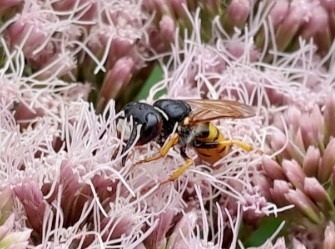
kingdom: Animalia
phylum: Arthropoda
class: Insecta
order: Hymenoptera
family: Crabronidae
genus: Philanthus
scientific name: Philanthus triangulum
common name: Biulv
